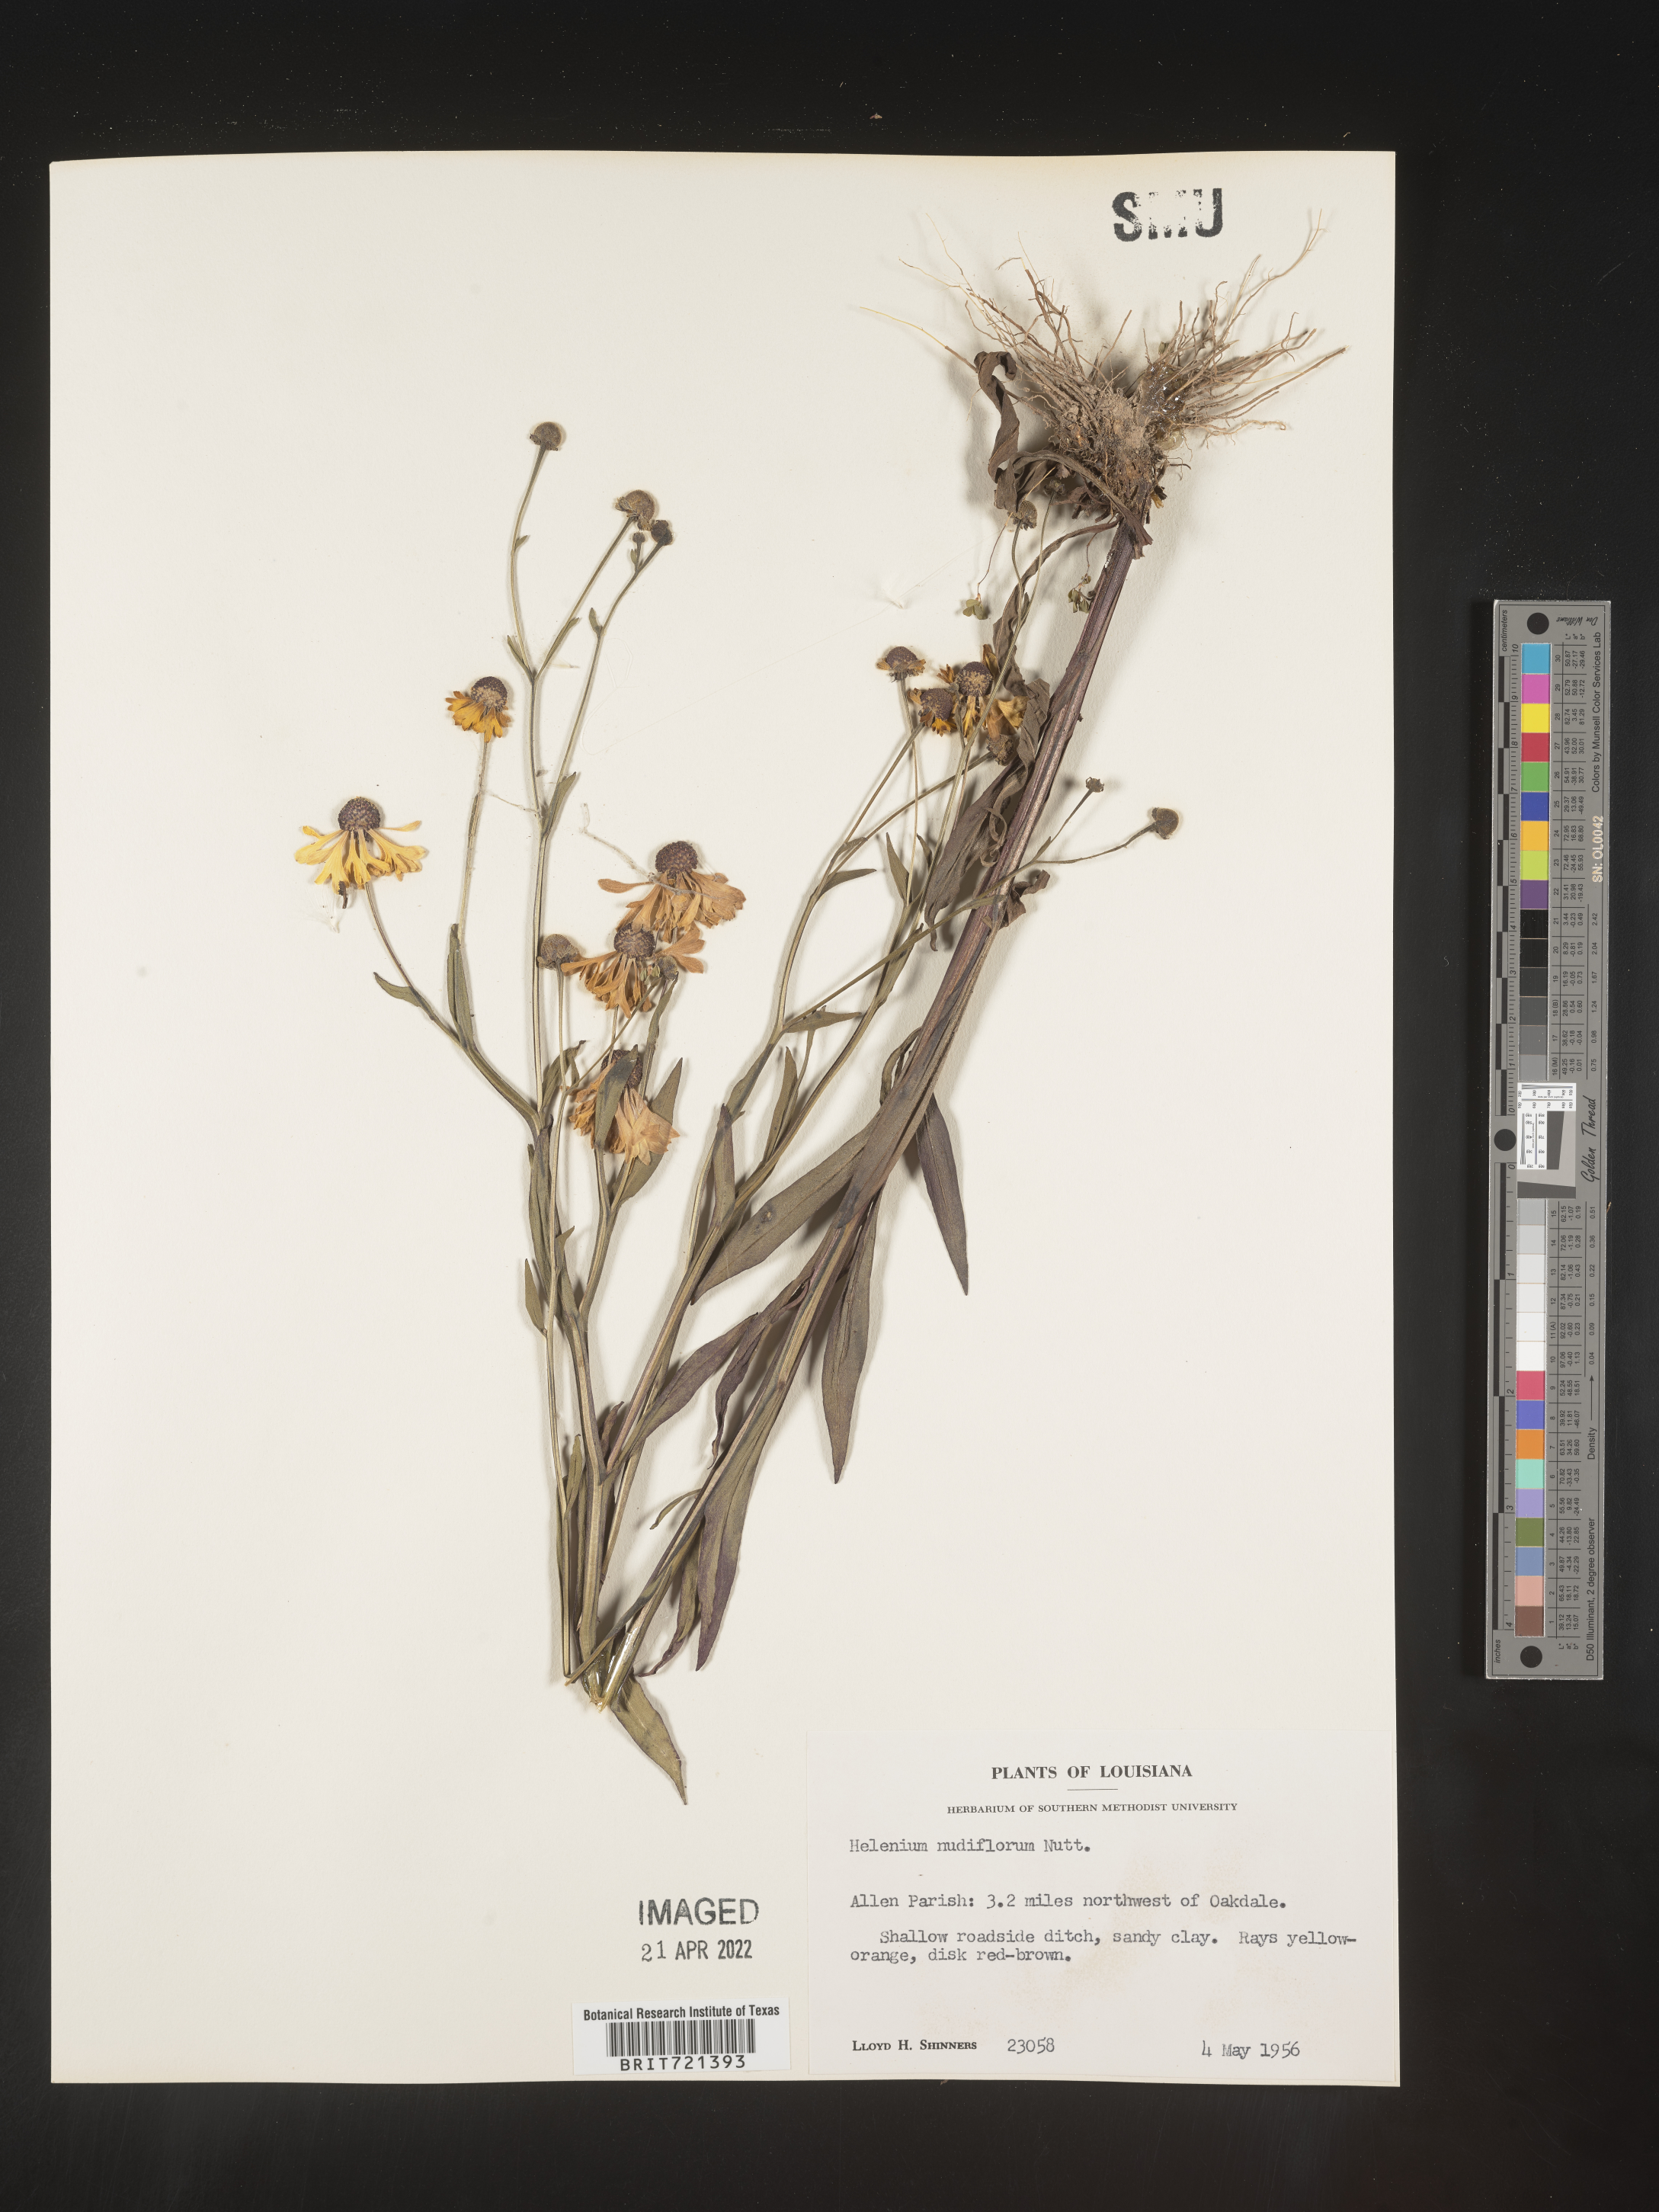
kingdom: Plantae
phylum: Tracheophyta
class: Magnoliopsida
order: Asterales
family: Asteraceae
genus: Helenium
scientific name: Helenium flexuosum
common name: Naked-flowered sneezeweed
